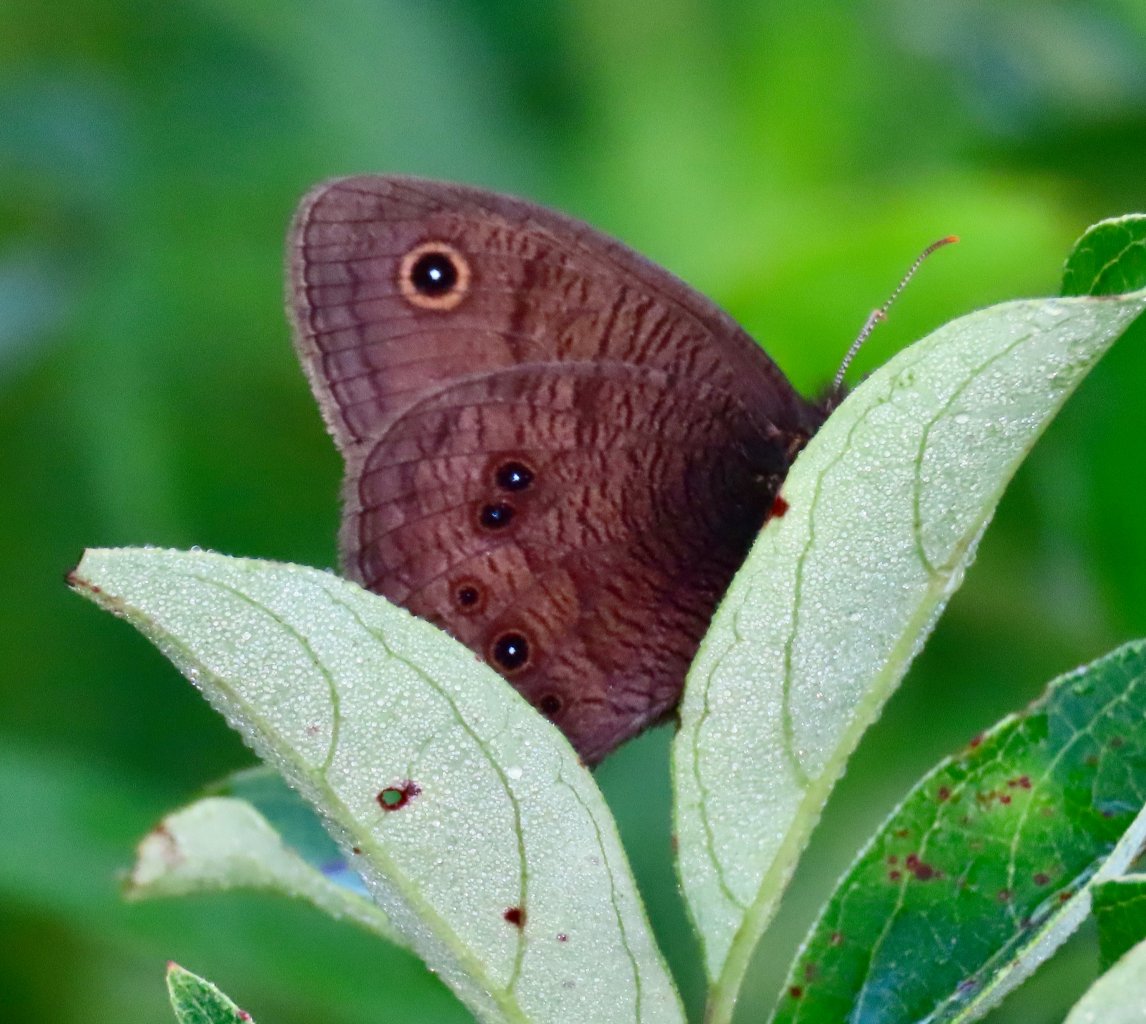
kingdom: Animalia
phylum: Arthropoda
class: Insecta
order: Lepidoptera
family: Nymphalidae
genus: Cercyonis
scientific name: Cercyonis pegala
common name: Common Wood-Nymph
